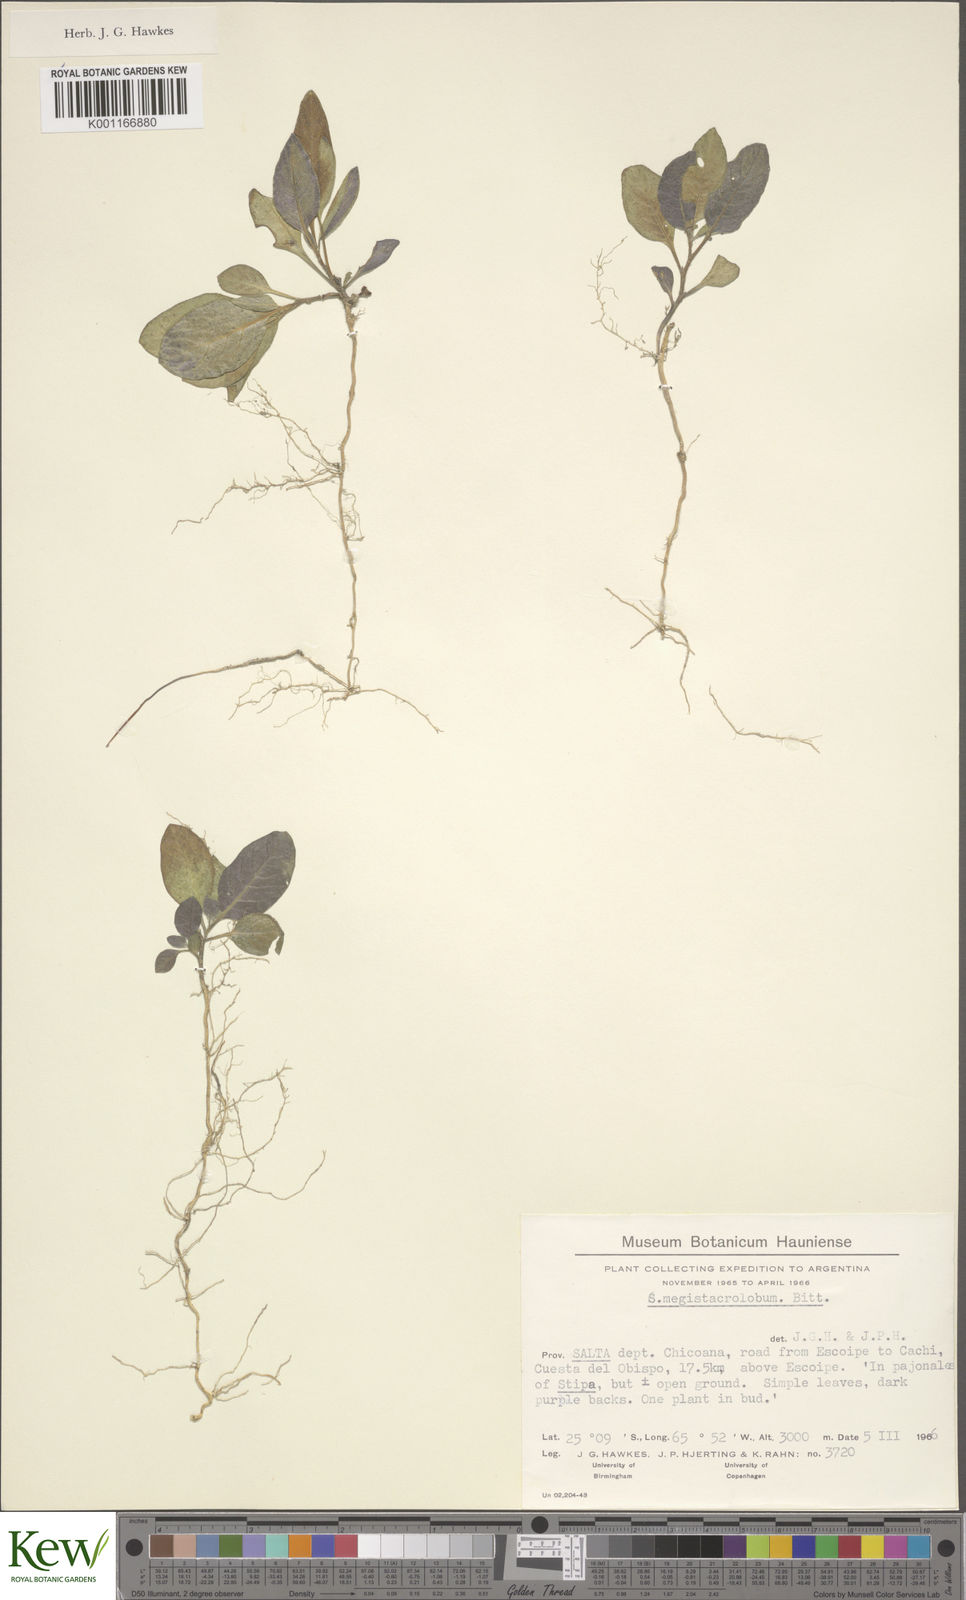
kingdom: Plantae
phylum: Tracheophyta
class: Magnoliopsida
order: Solanales
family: Solanaceae
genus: Solanum
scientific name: Solanum boliviense
